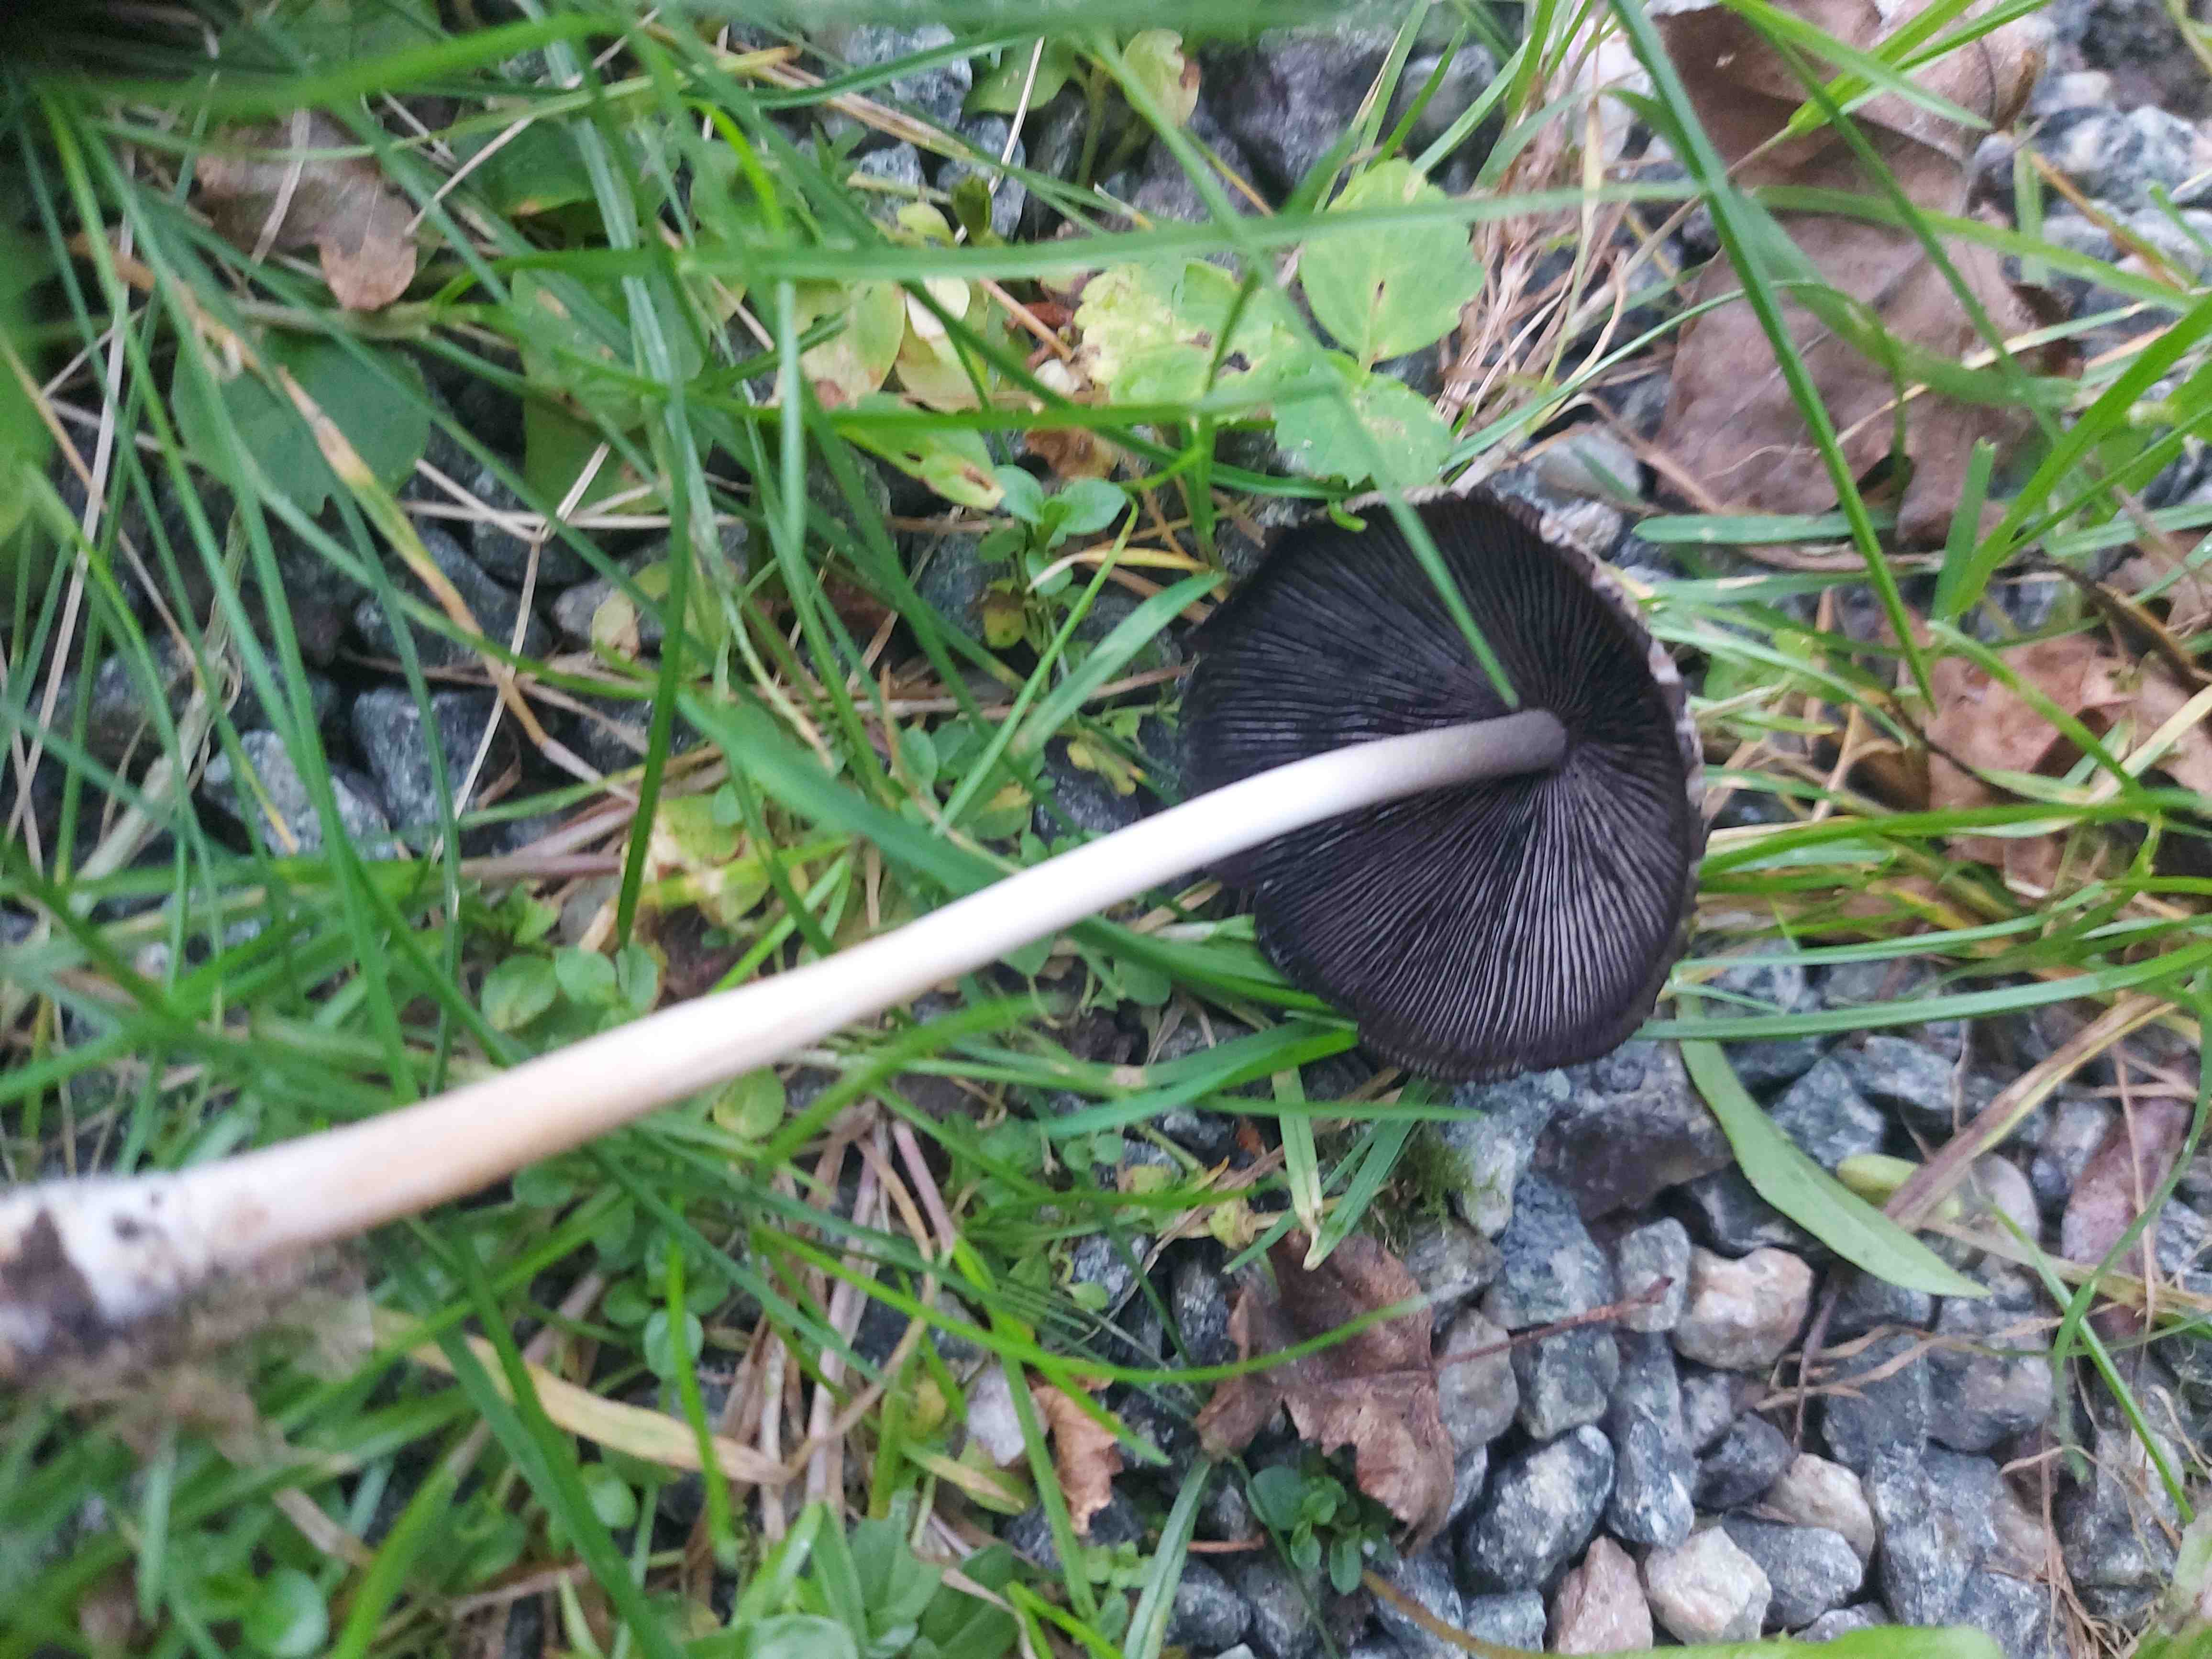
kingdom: Fungi
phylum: Basidiomycota
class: Agaricomycetes
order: Agaricales
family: Psathyrellaceae
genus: Coprinellus
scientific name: Coprinellus
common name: blækhat
